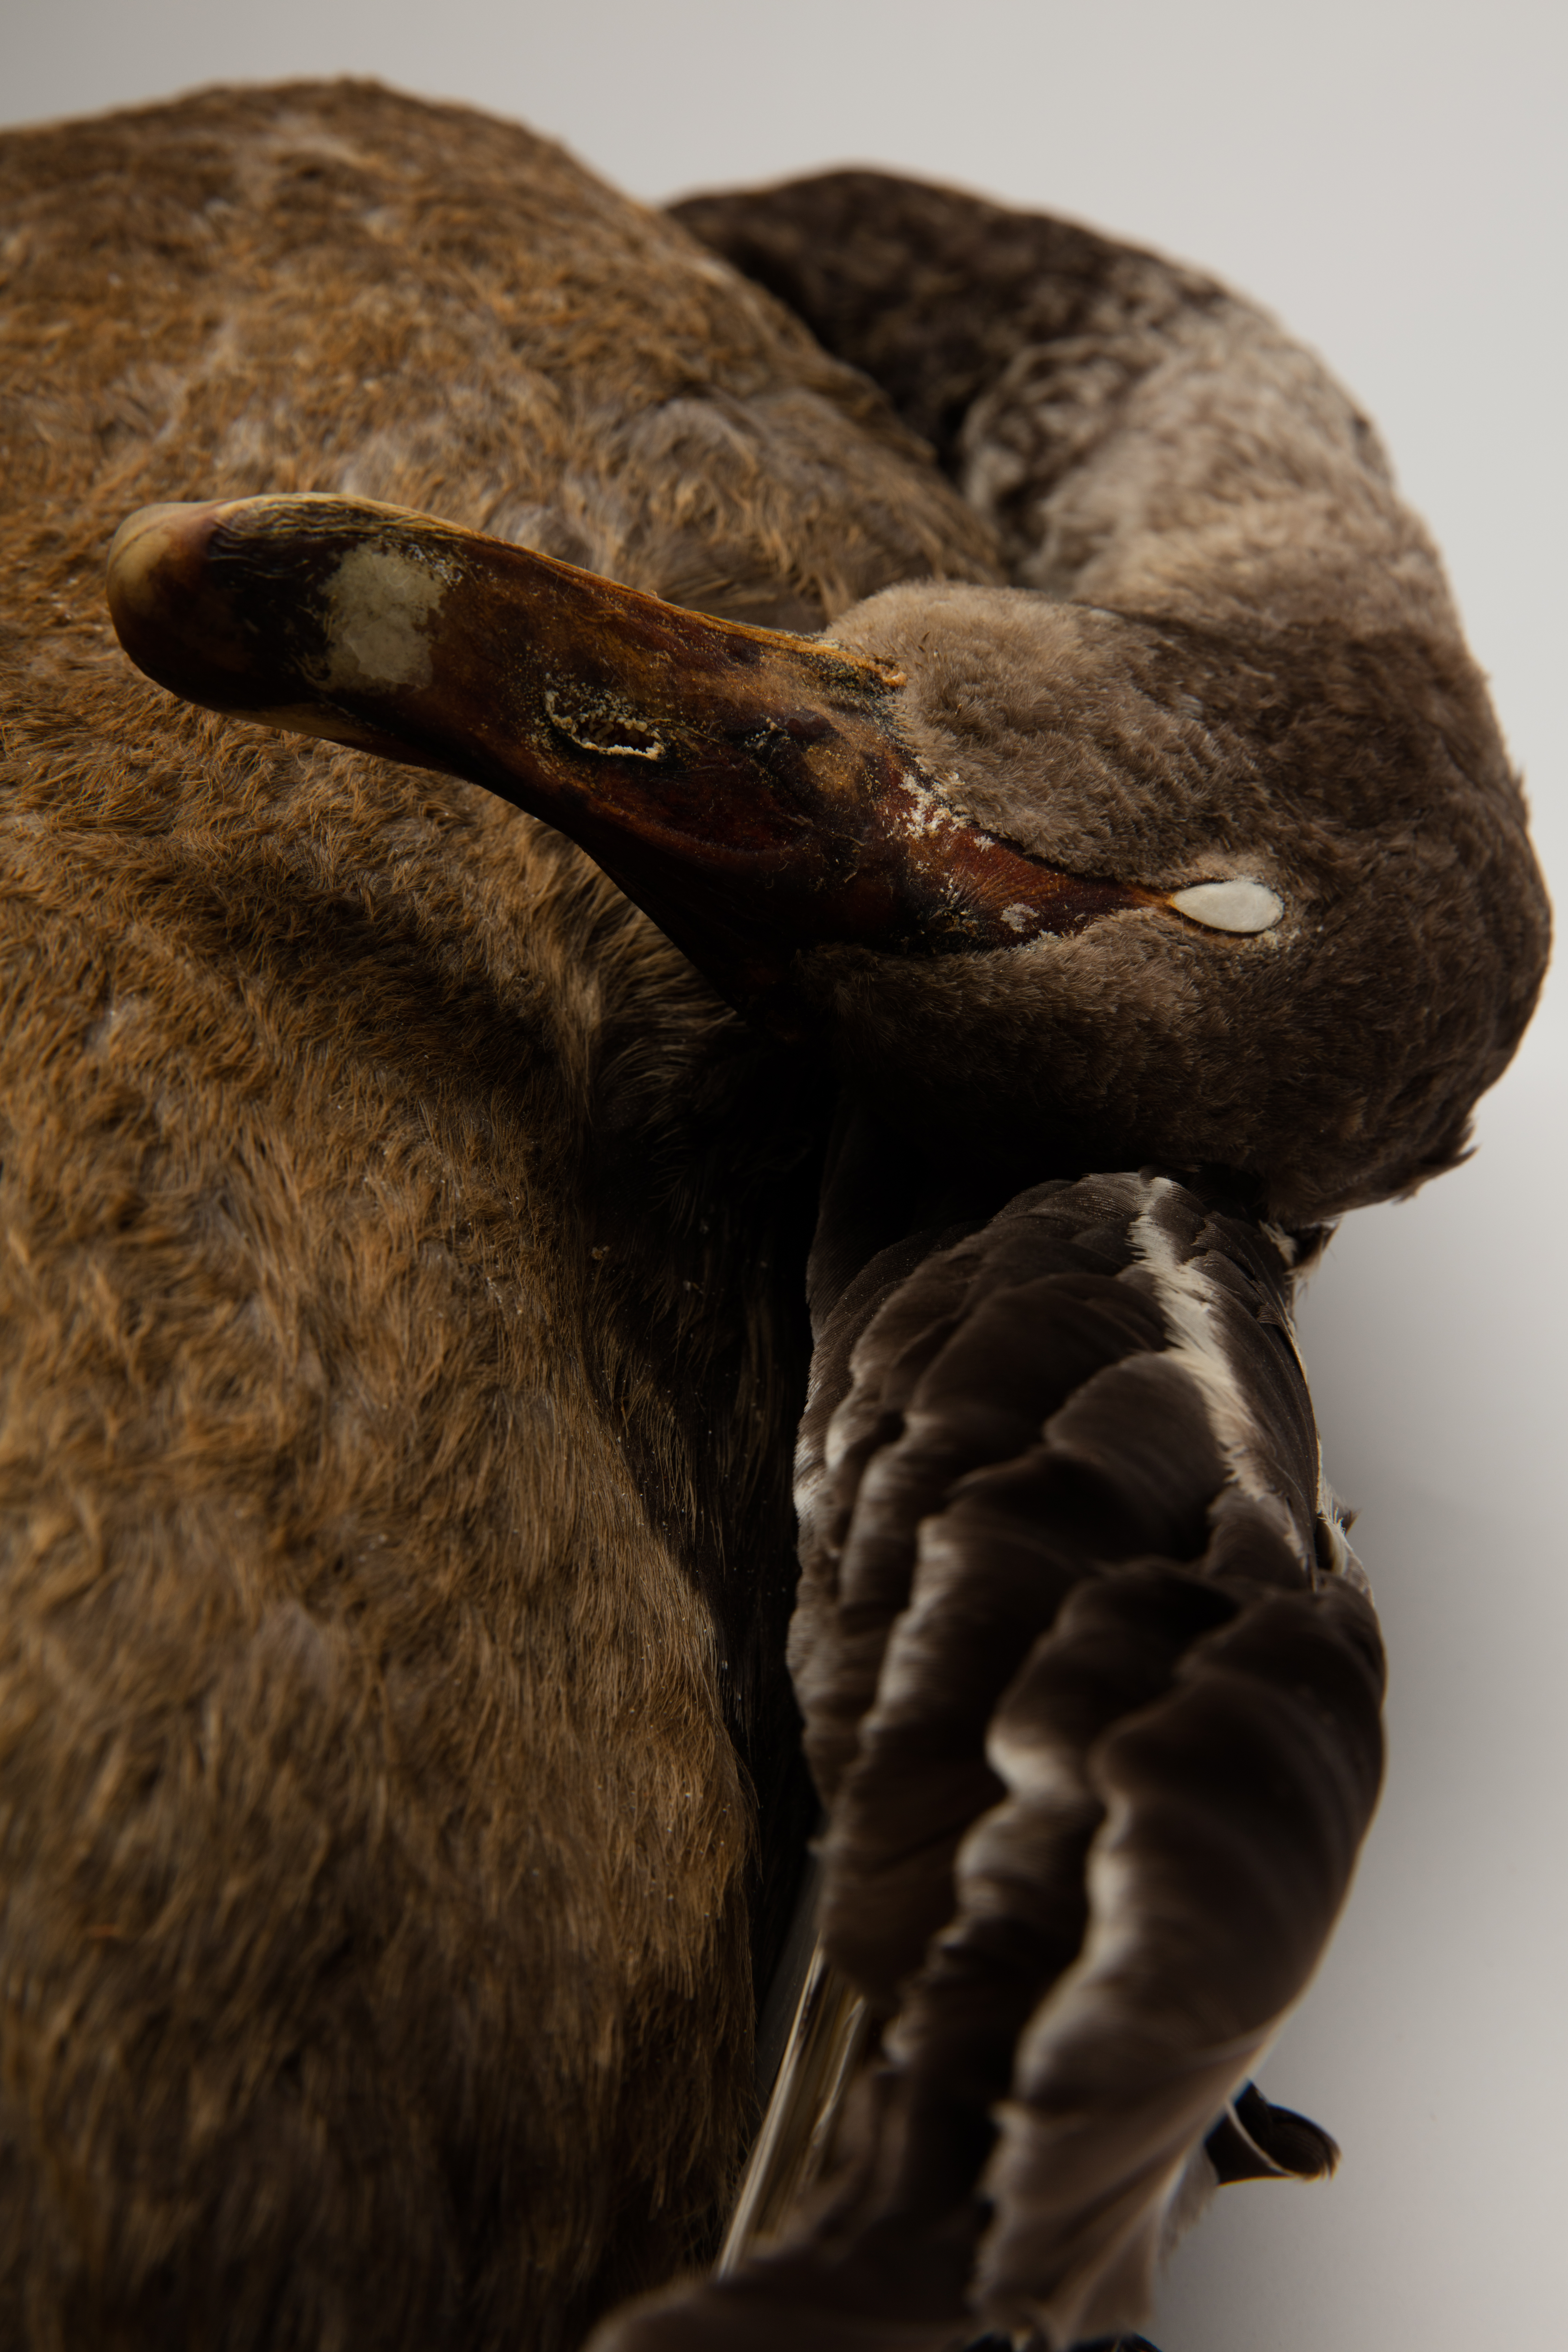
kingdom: Animalia
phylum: Chordata
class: Aves
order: Anseriformes
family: Anatidae
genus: Cygnus
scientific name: Cygnus atratus
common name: Black swan
